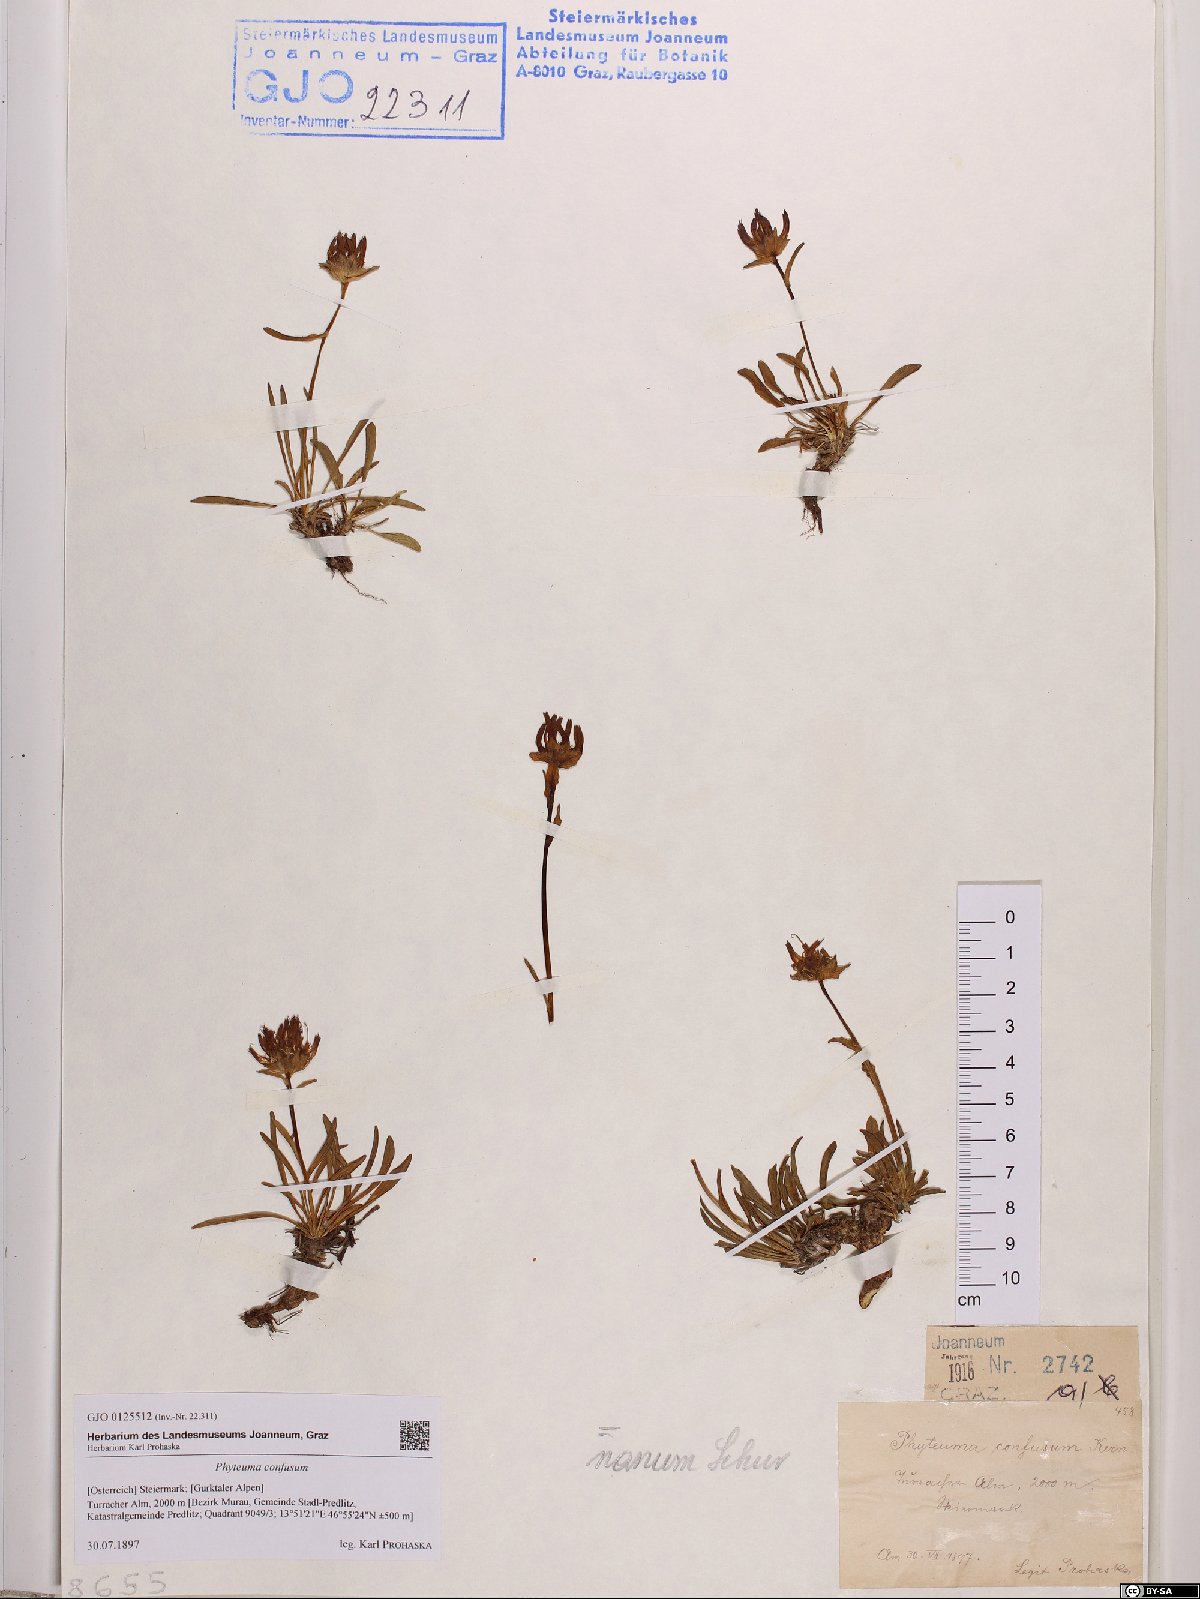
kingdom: Plantae
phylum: Tracheophyta
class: Magnoliopsida
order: Asterales
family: Campanulaceae
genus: Phyteuma
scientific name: Phyteuma confusum
